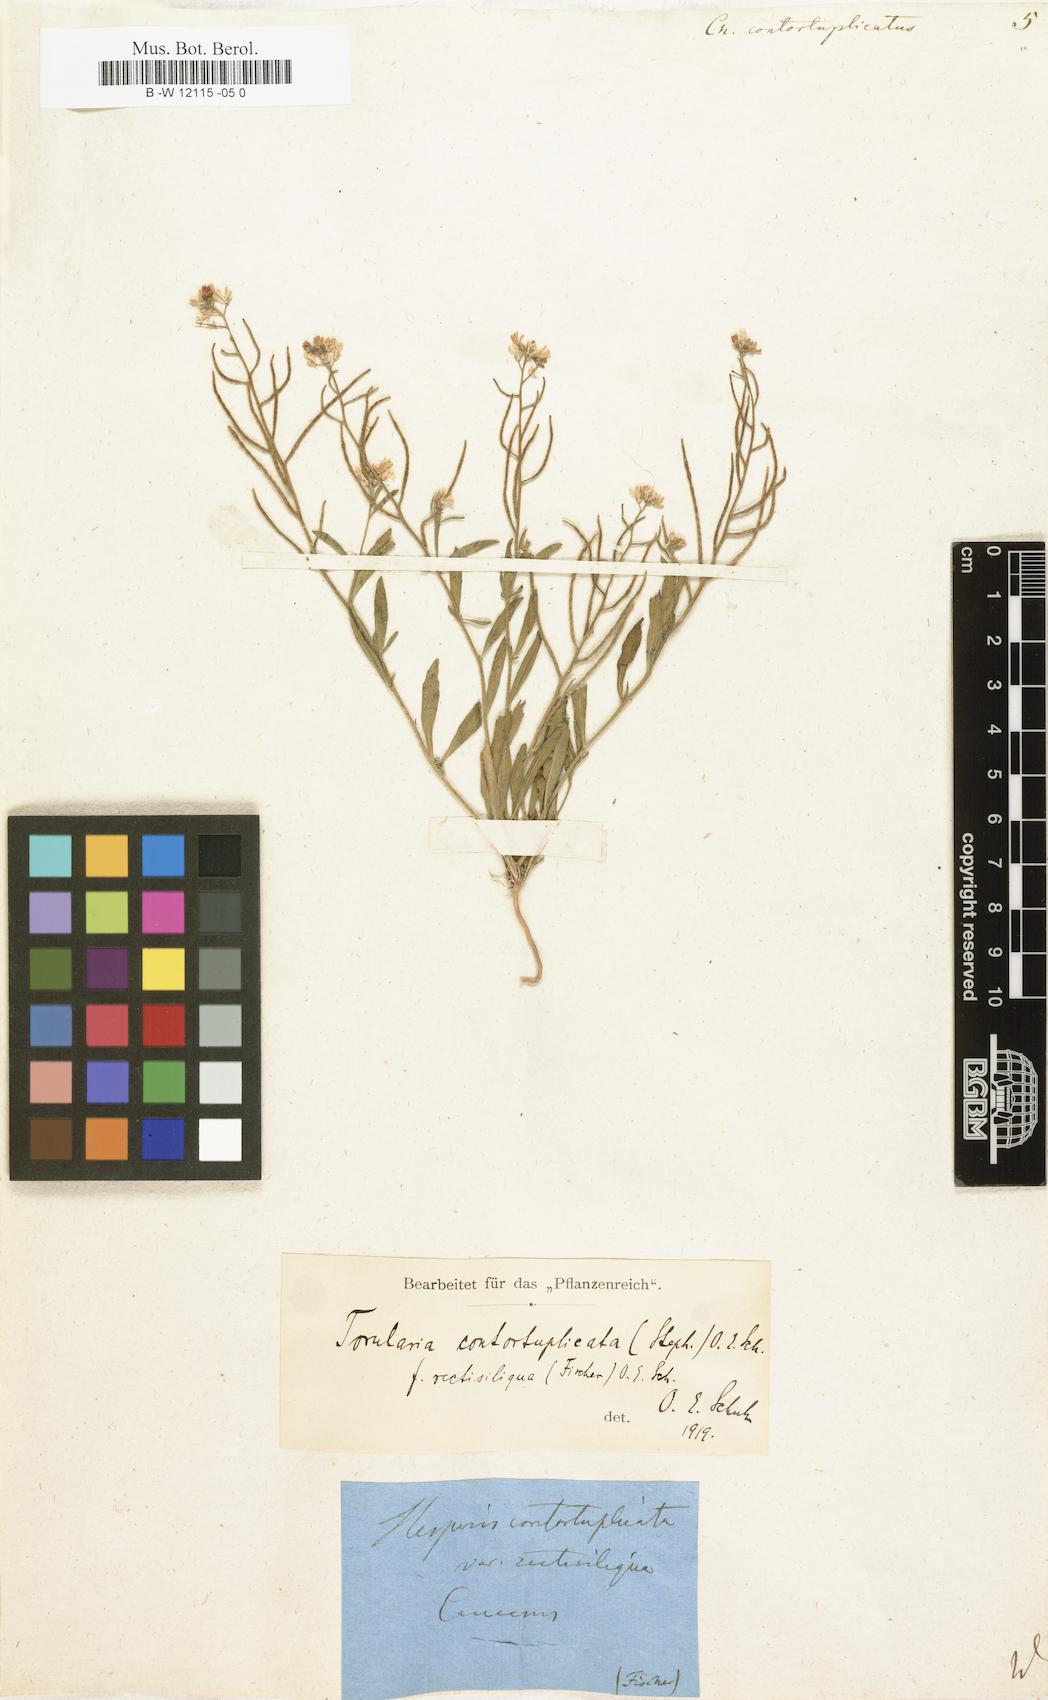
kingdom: Plantae
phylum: Tracheophyta
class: Magnoliopsida
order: Brassicales
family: Brassicaceae
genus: Neotorularia
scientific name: Neotorularia contortuplicata
